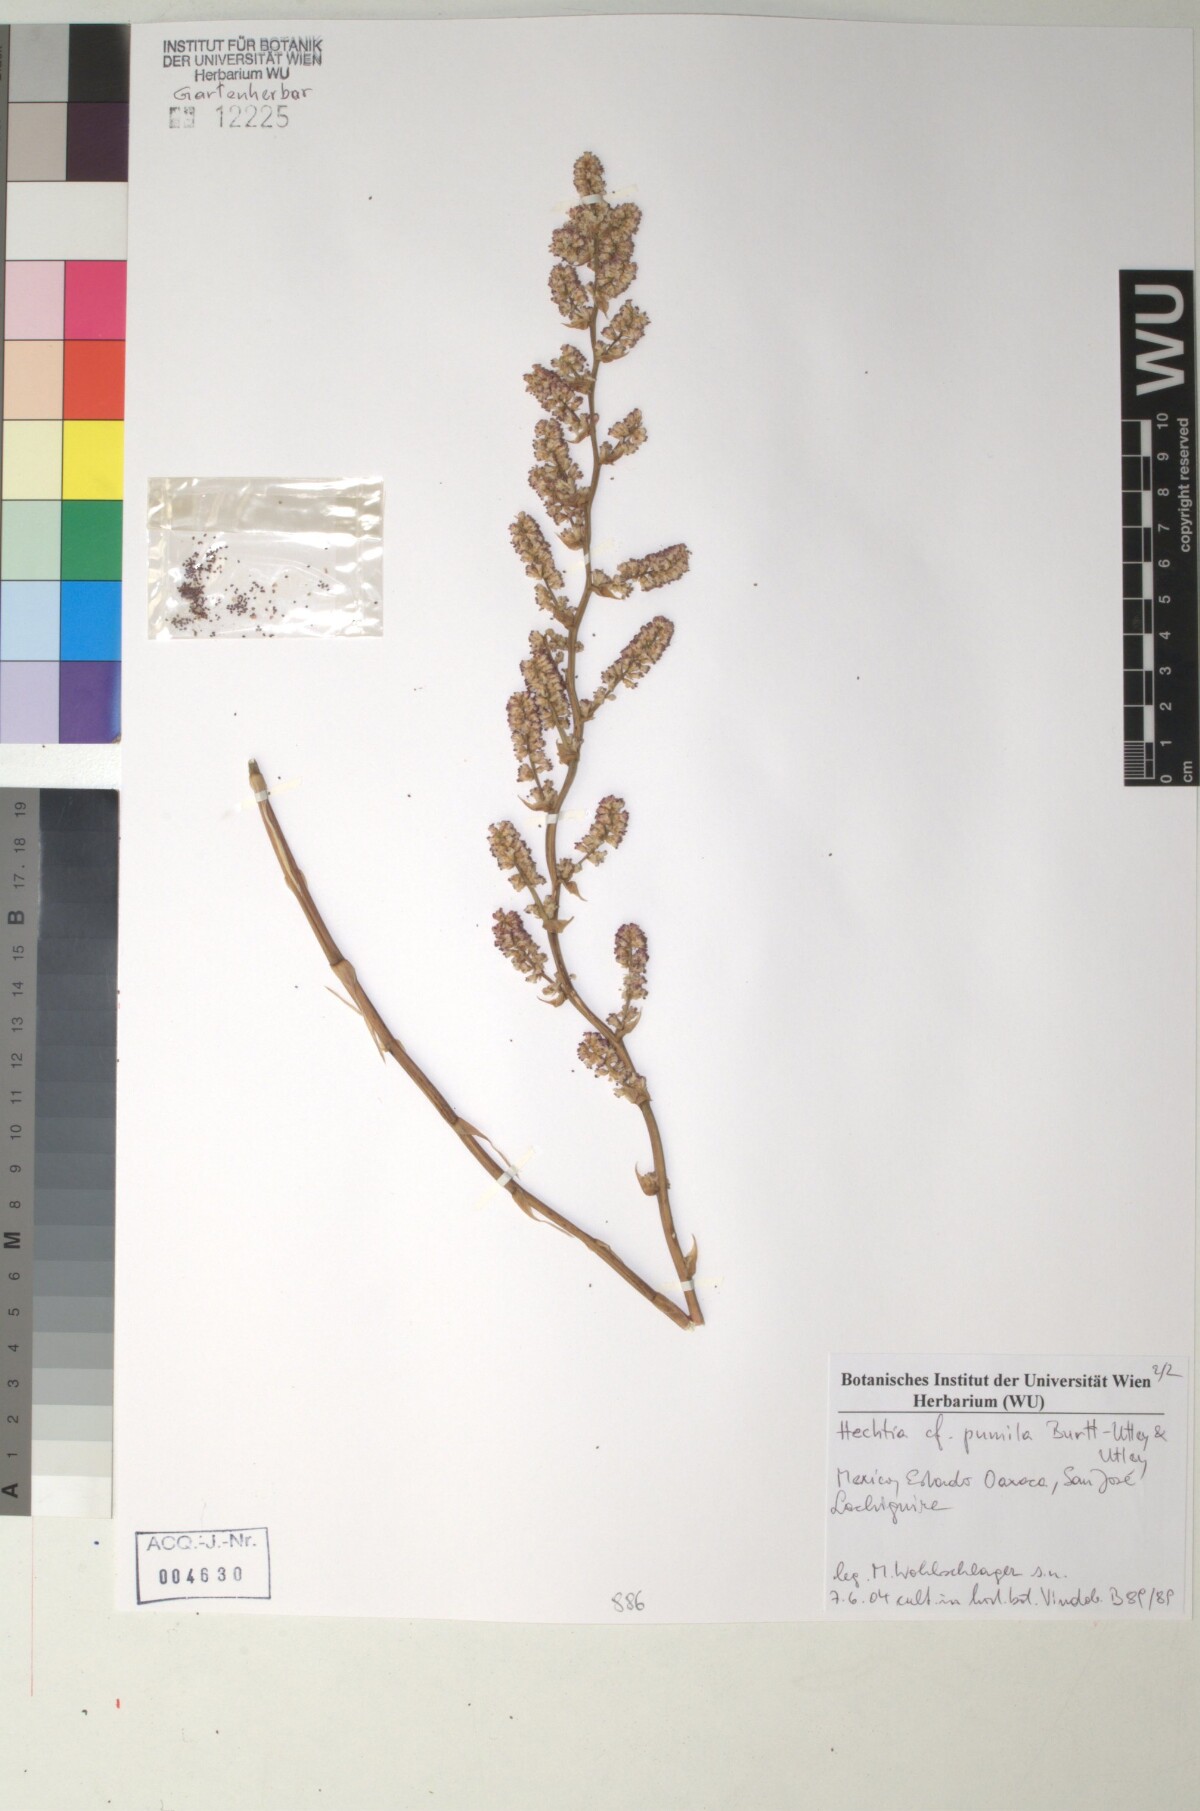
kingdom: Plantae
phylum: Tracheophyta
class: Liliopsida
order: Poales
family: Bromeliaceae
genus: Hechtia
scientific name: Hechtia marnier-lapostollei
